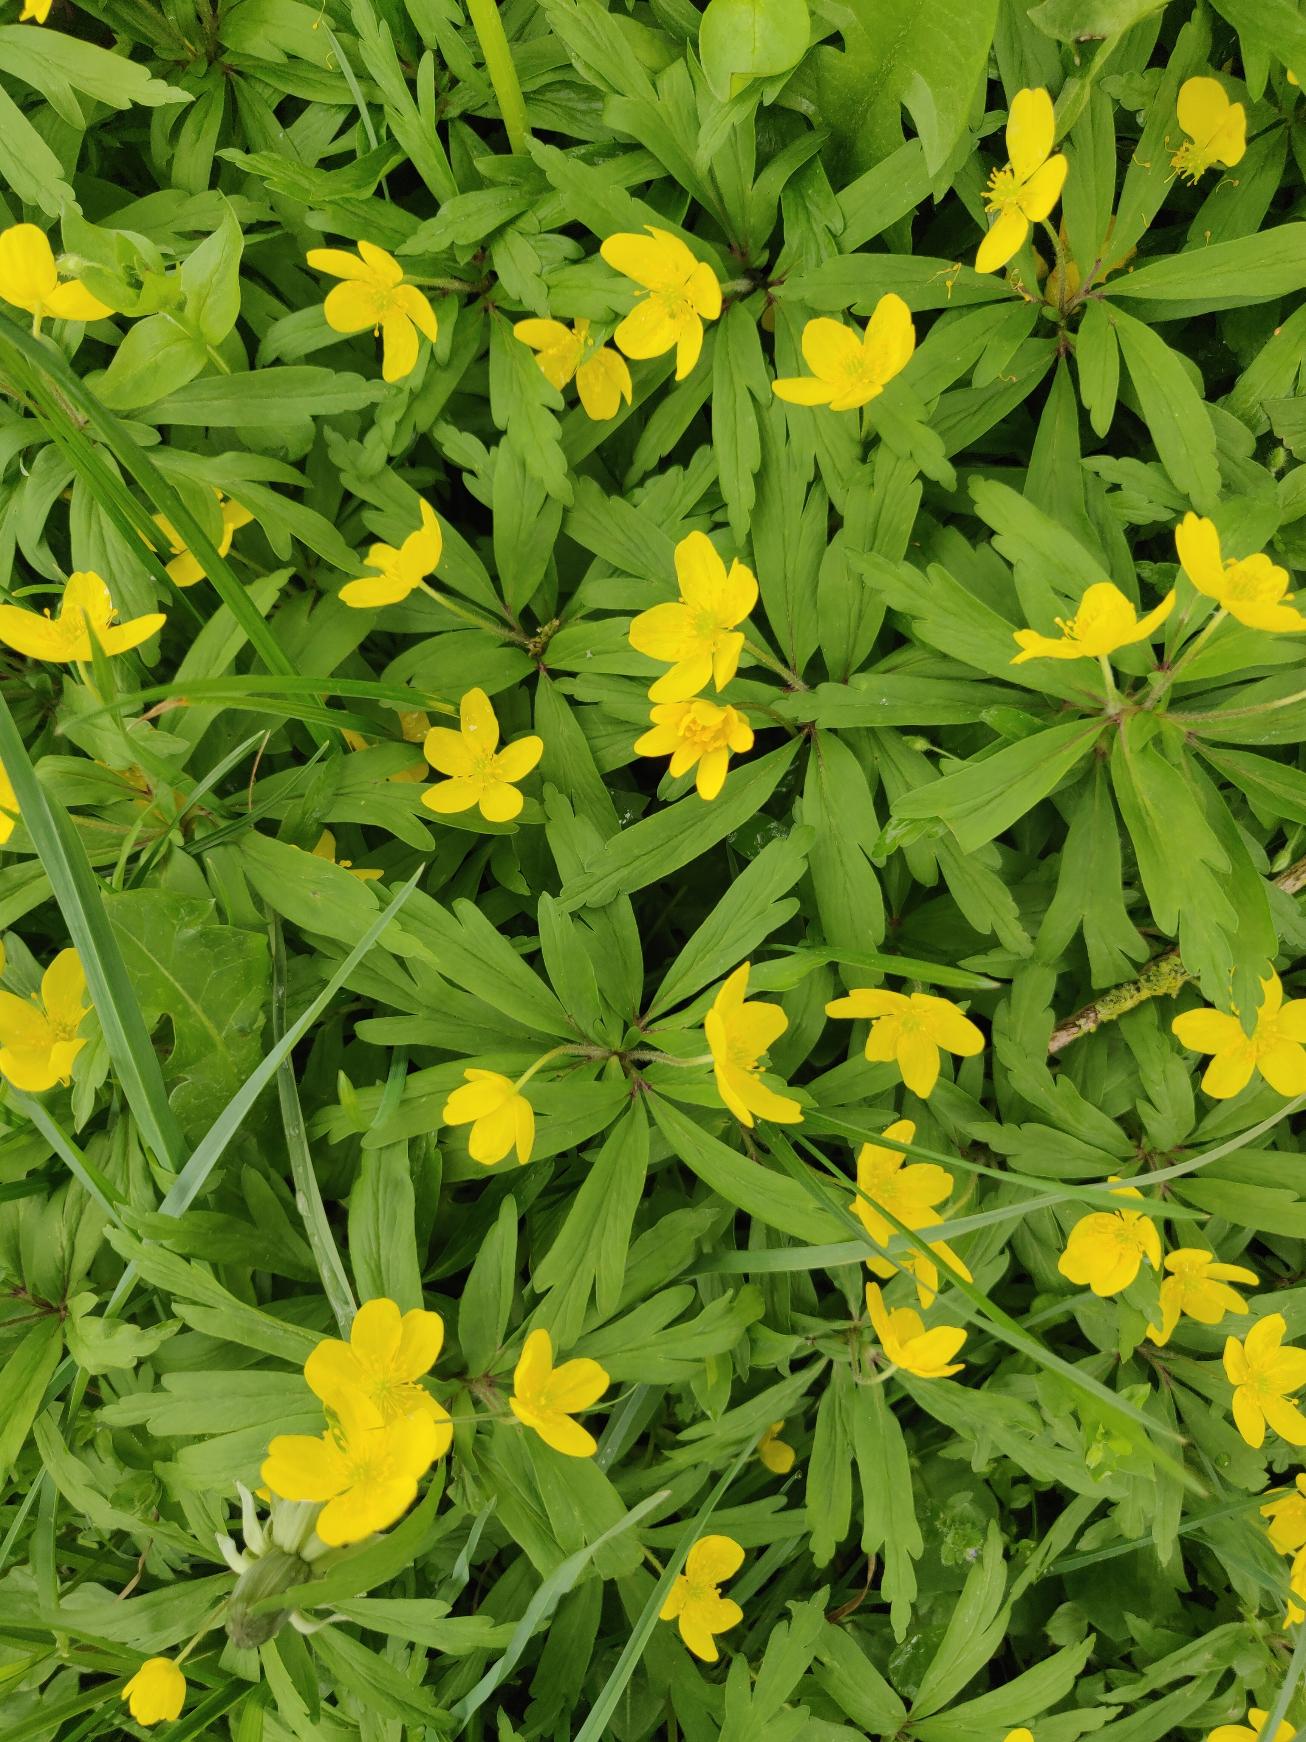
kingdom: Plantae
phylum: Tracheophyta
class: Magnoliopsida
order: Ranunculales
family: Ranunculaceae
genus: Anemone
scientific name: Anemone ranunculoides
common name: Gul anemone
